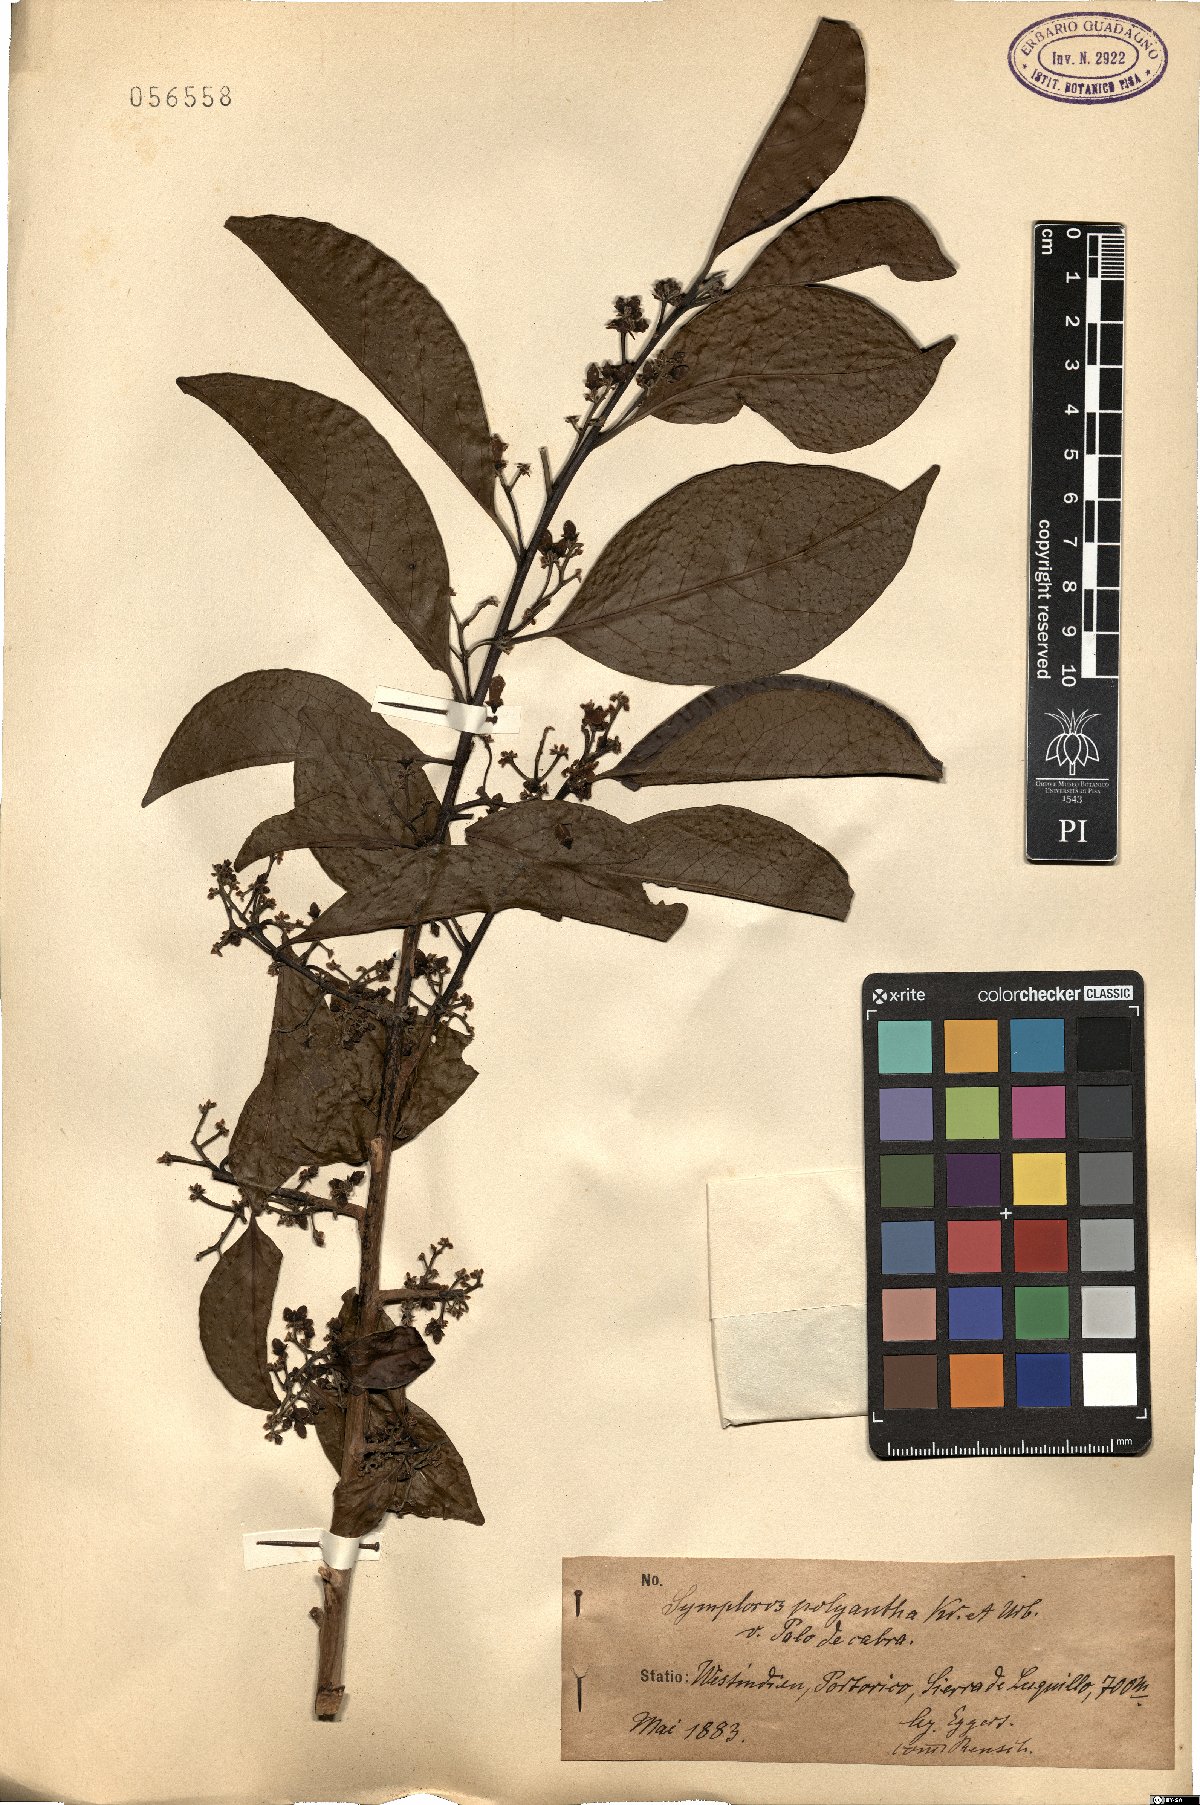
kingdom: Plantae
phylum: Tracheophyta
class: Magnoliopsida
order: Ericales
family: Symplocaceae
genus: Symplocos
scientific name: Symplocos latifolia
